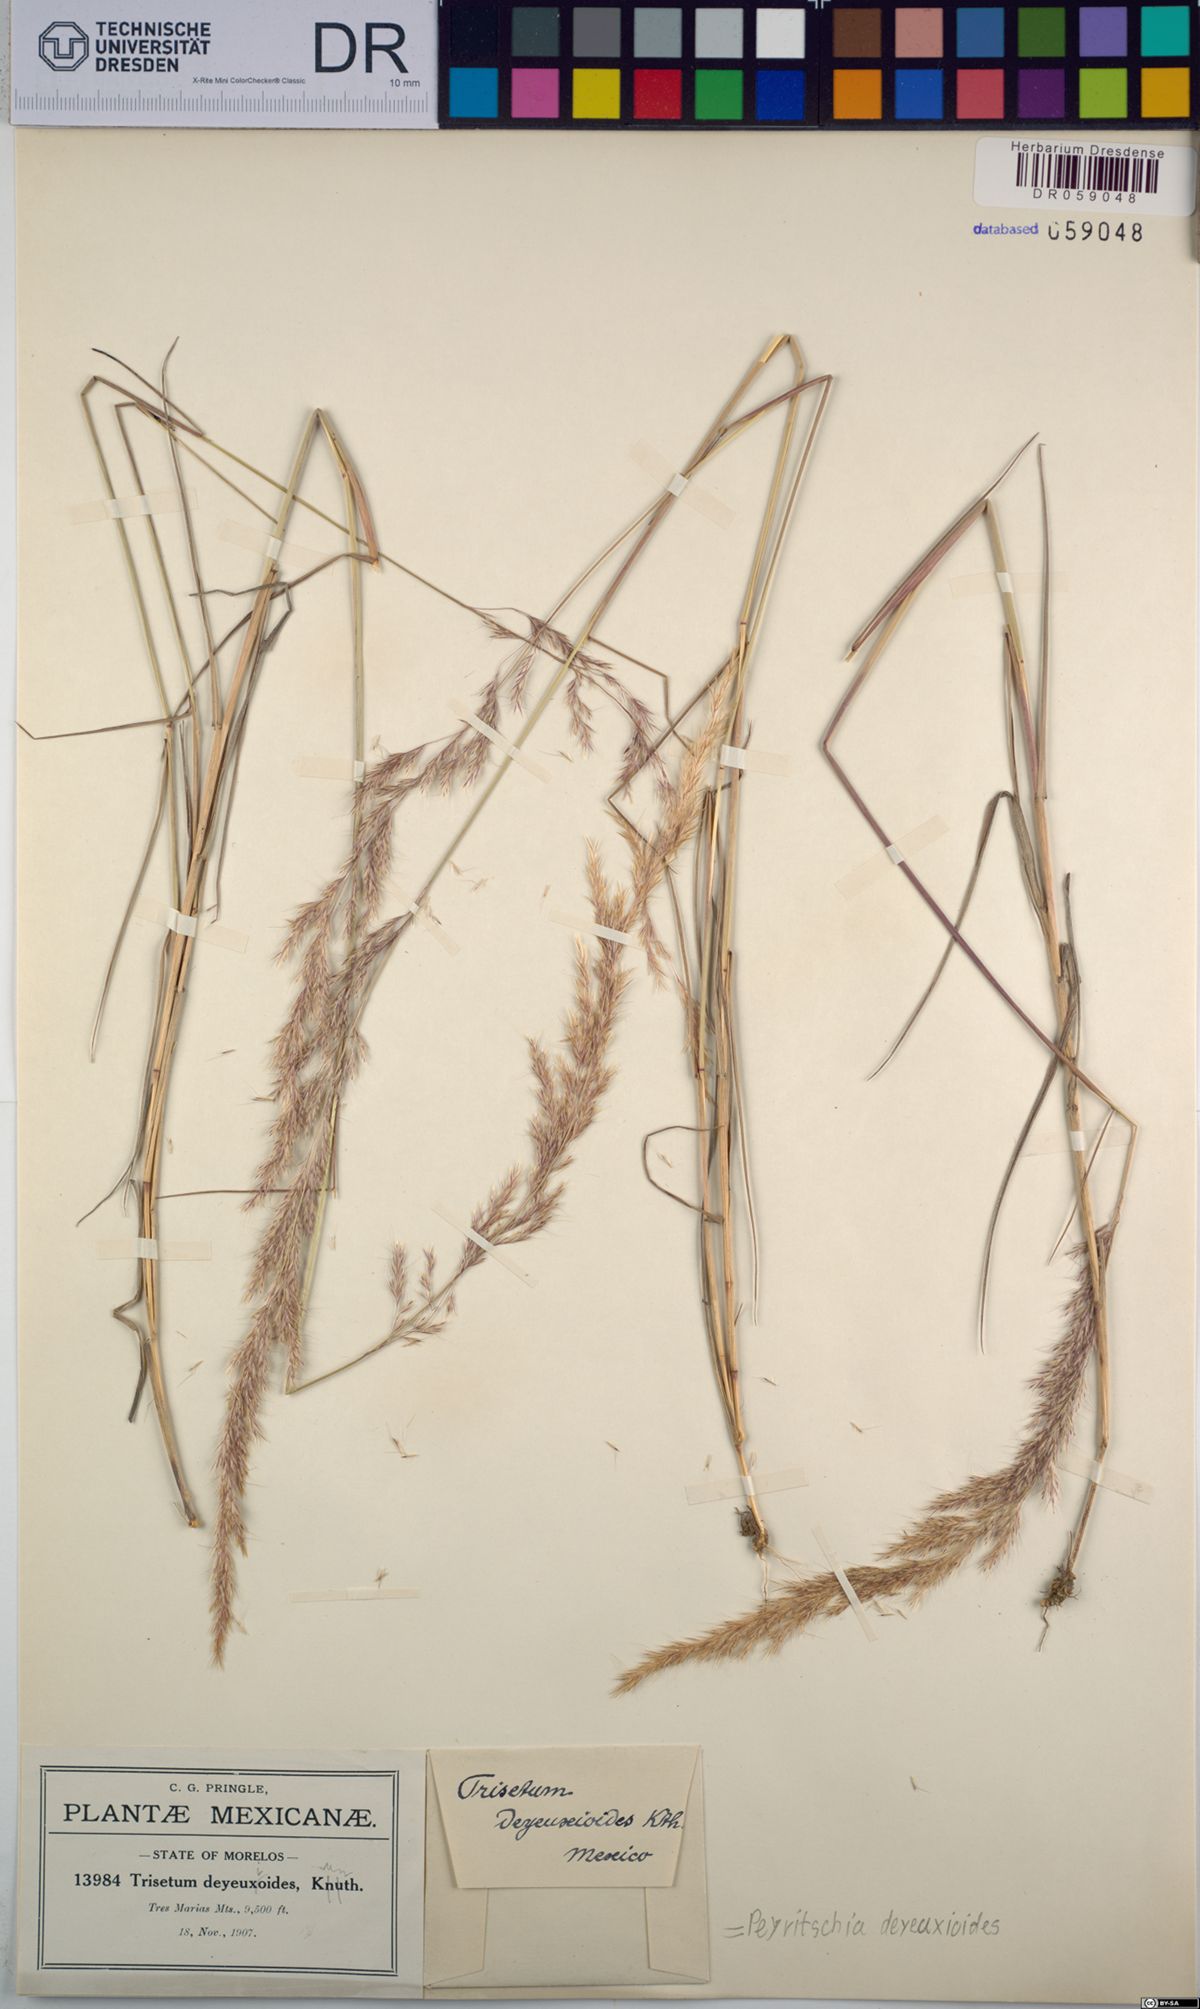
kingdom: Plantae
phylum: Tracheophyta
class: Liliopsida
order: Poales
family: Poaceae
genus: Peyritschia
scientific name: Peyritschia deyeuxioides
